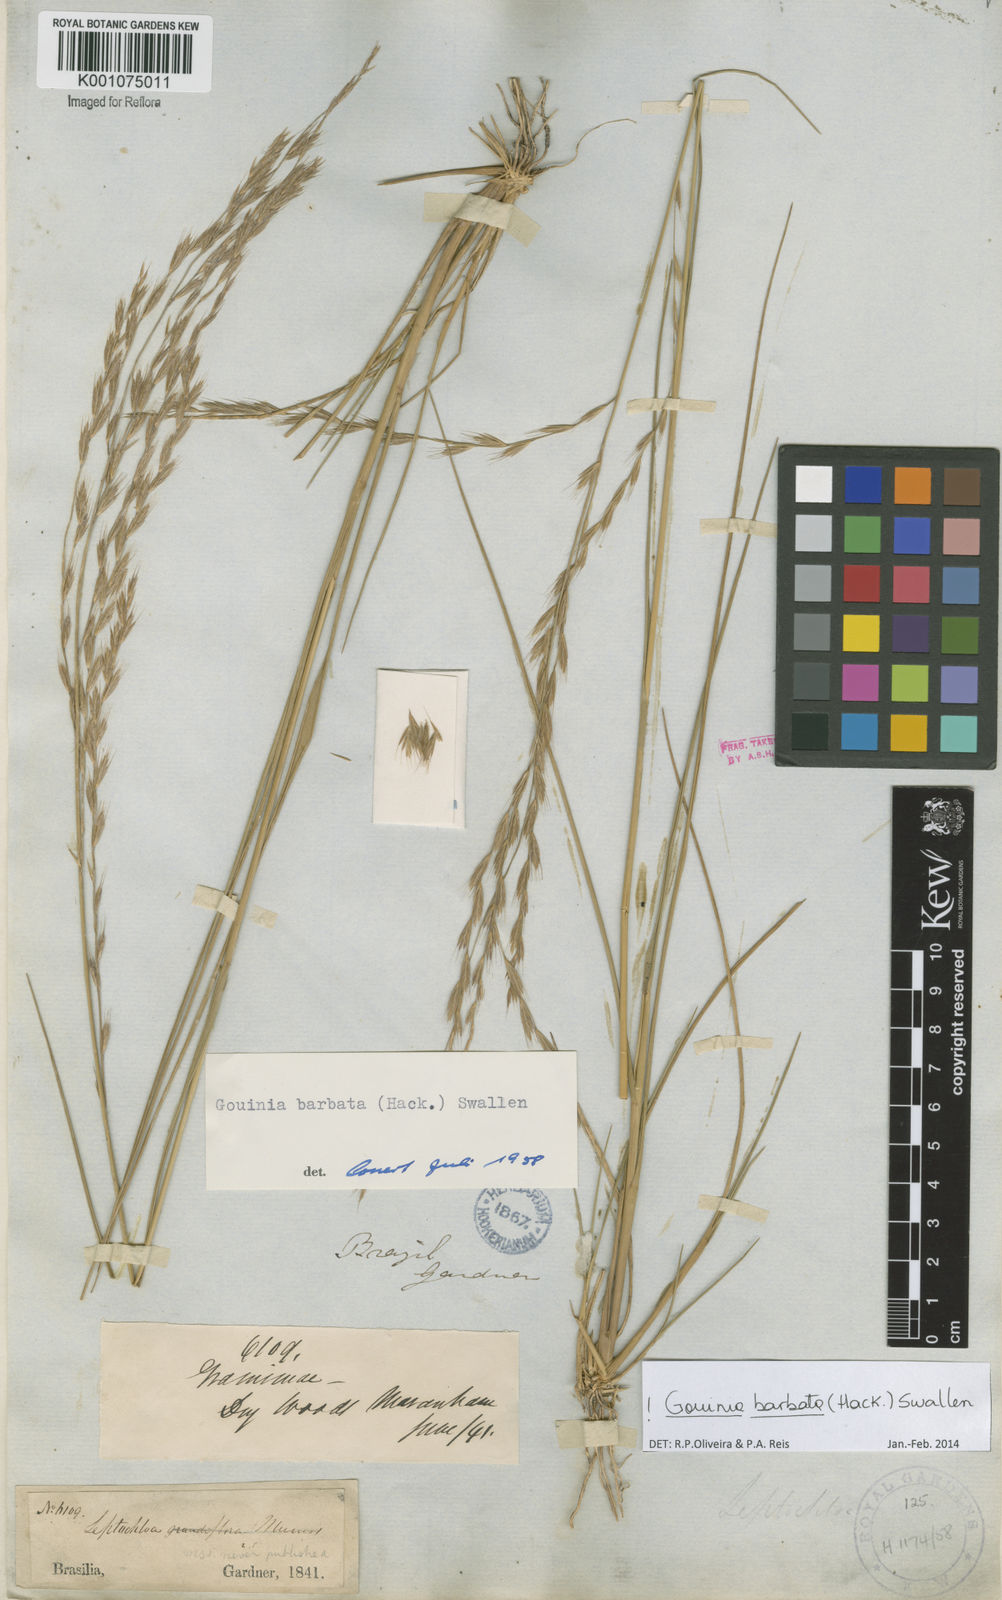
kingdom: Plantae
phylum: Tracheophyta
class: Liliopsida
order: Poales
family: Poaceae
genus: Schenckochloa
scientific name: Schenckochloa barbata
